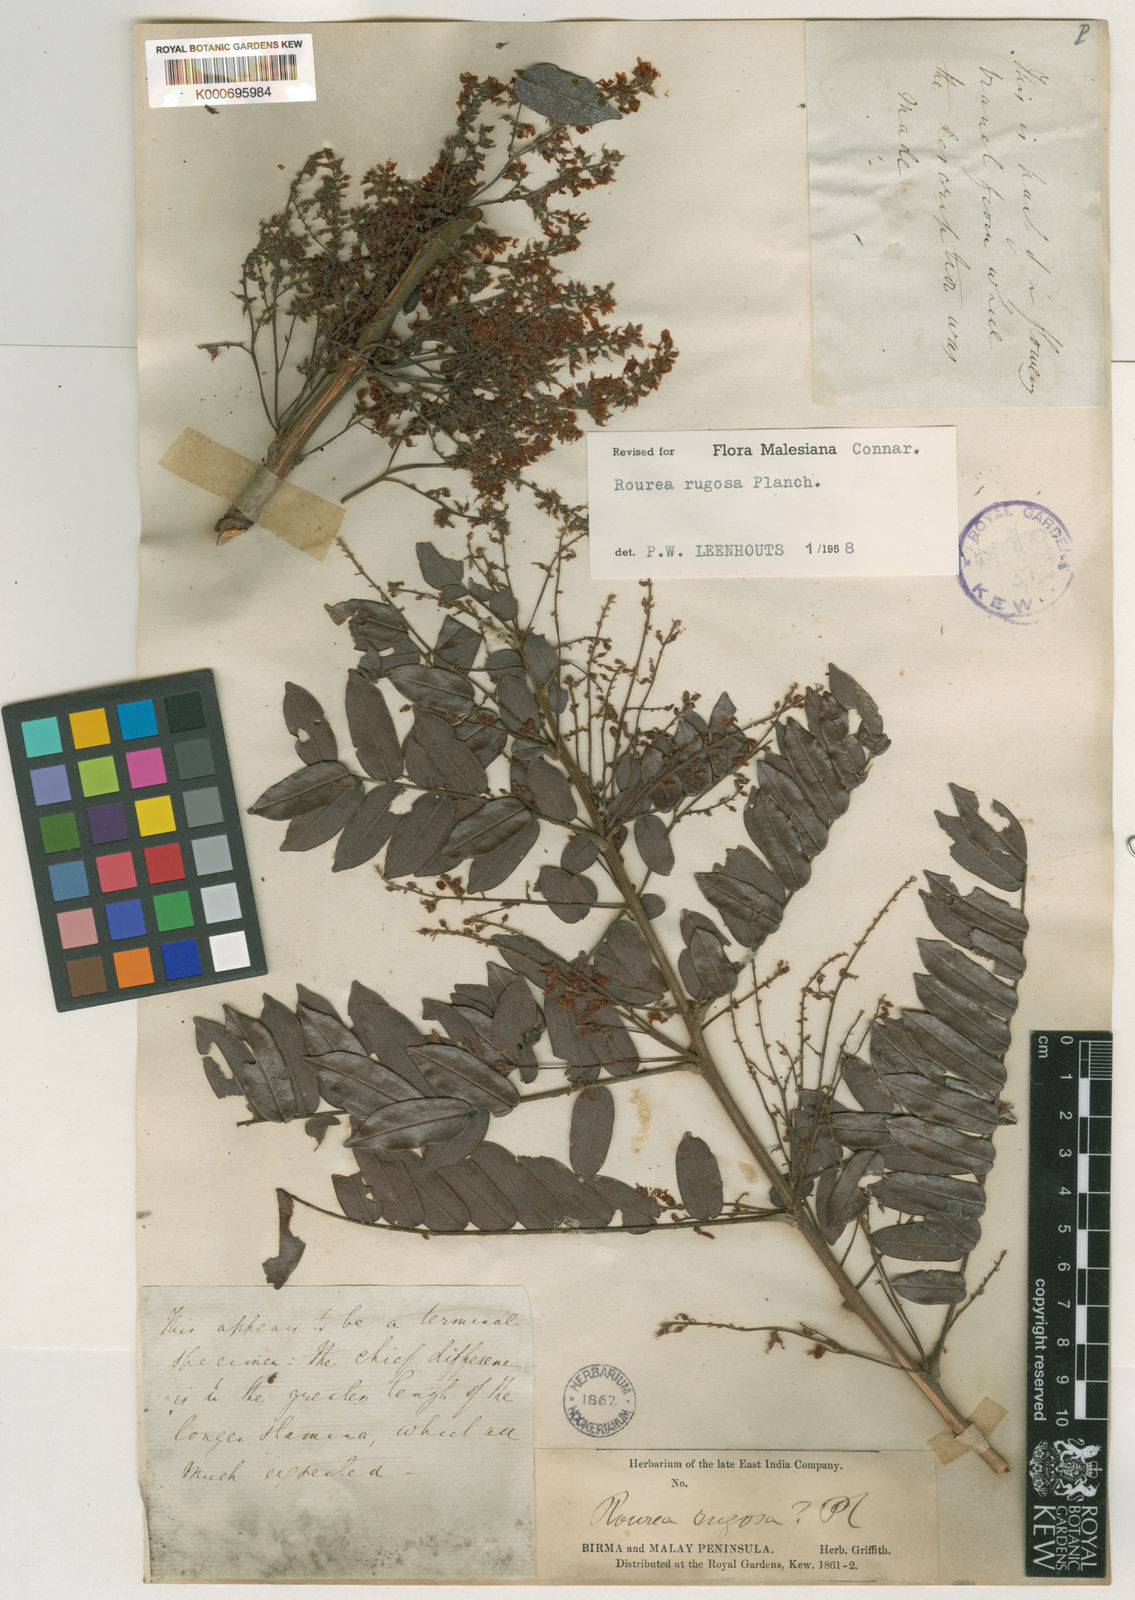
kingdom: Plantae
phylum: Tracheophyta
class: Magnoliopsida
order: Oxalidales
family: Connaraceae
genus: Rourea
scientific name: Rourea rugosa
